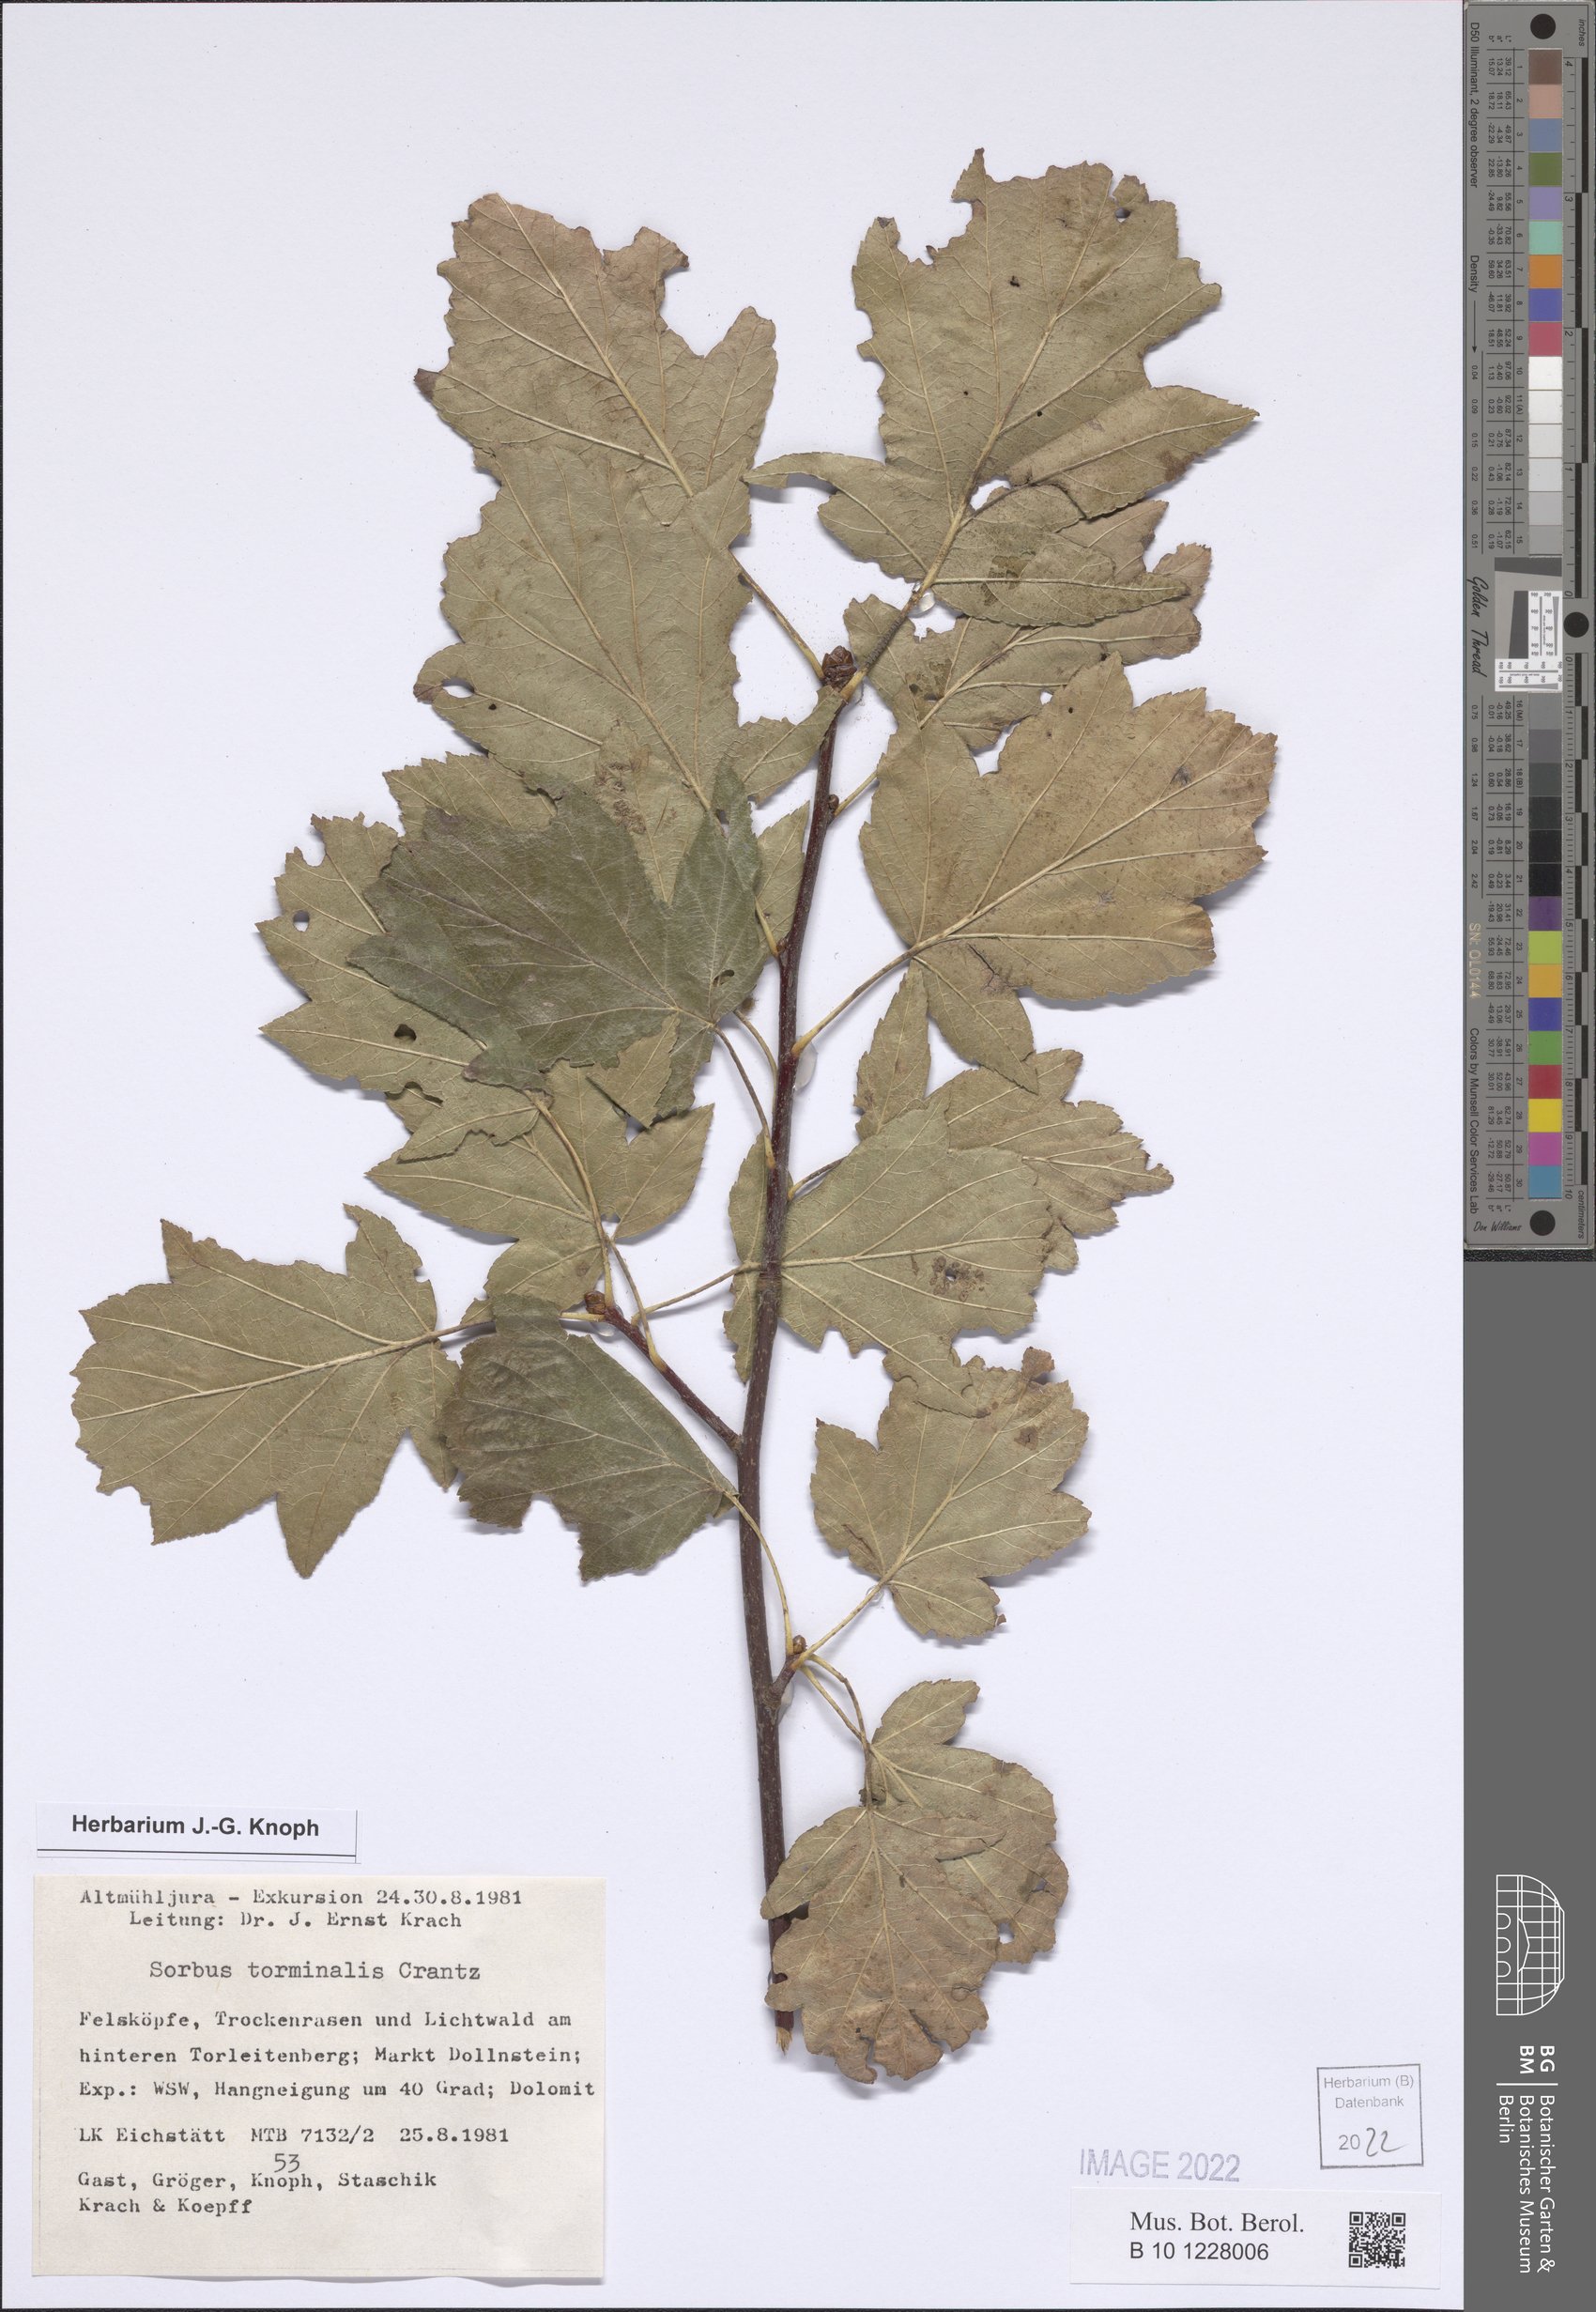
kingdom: Plantae
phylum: Tracheophyta
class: Magnoliopsida
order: Rosales
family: Rosaceae
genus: Torminalis
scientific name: Torminalis glaberrima
